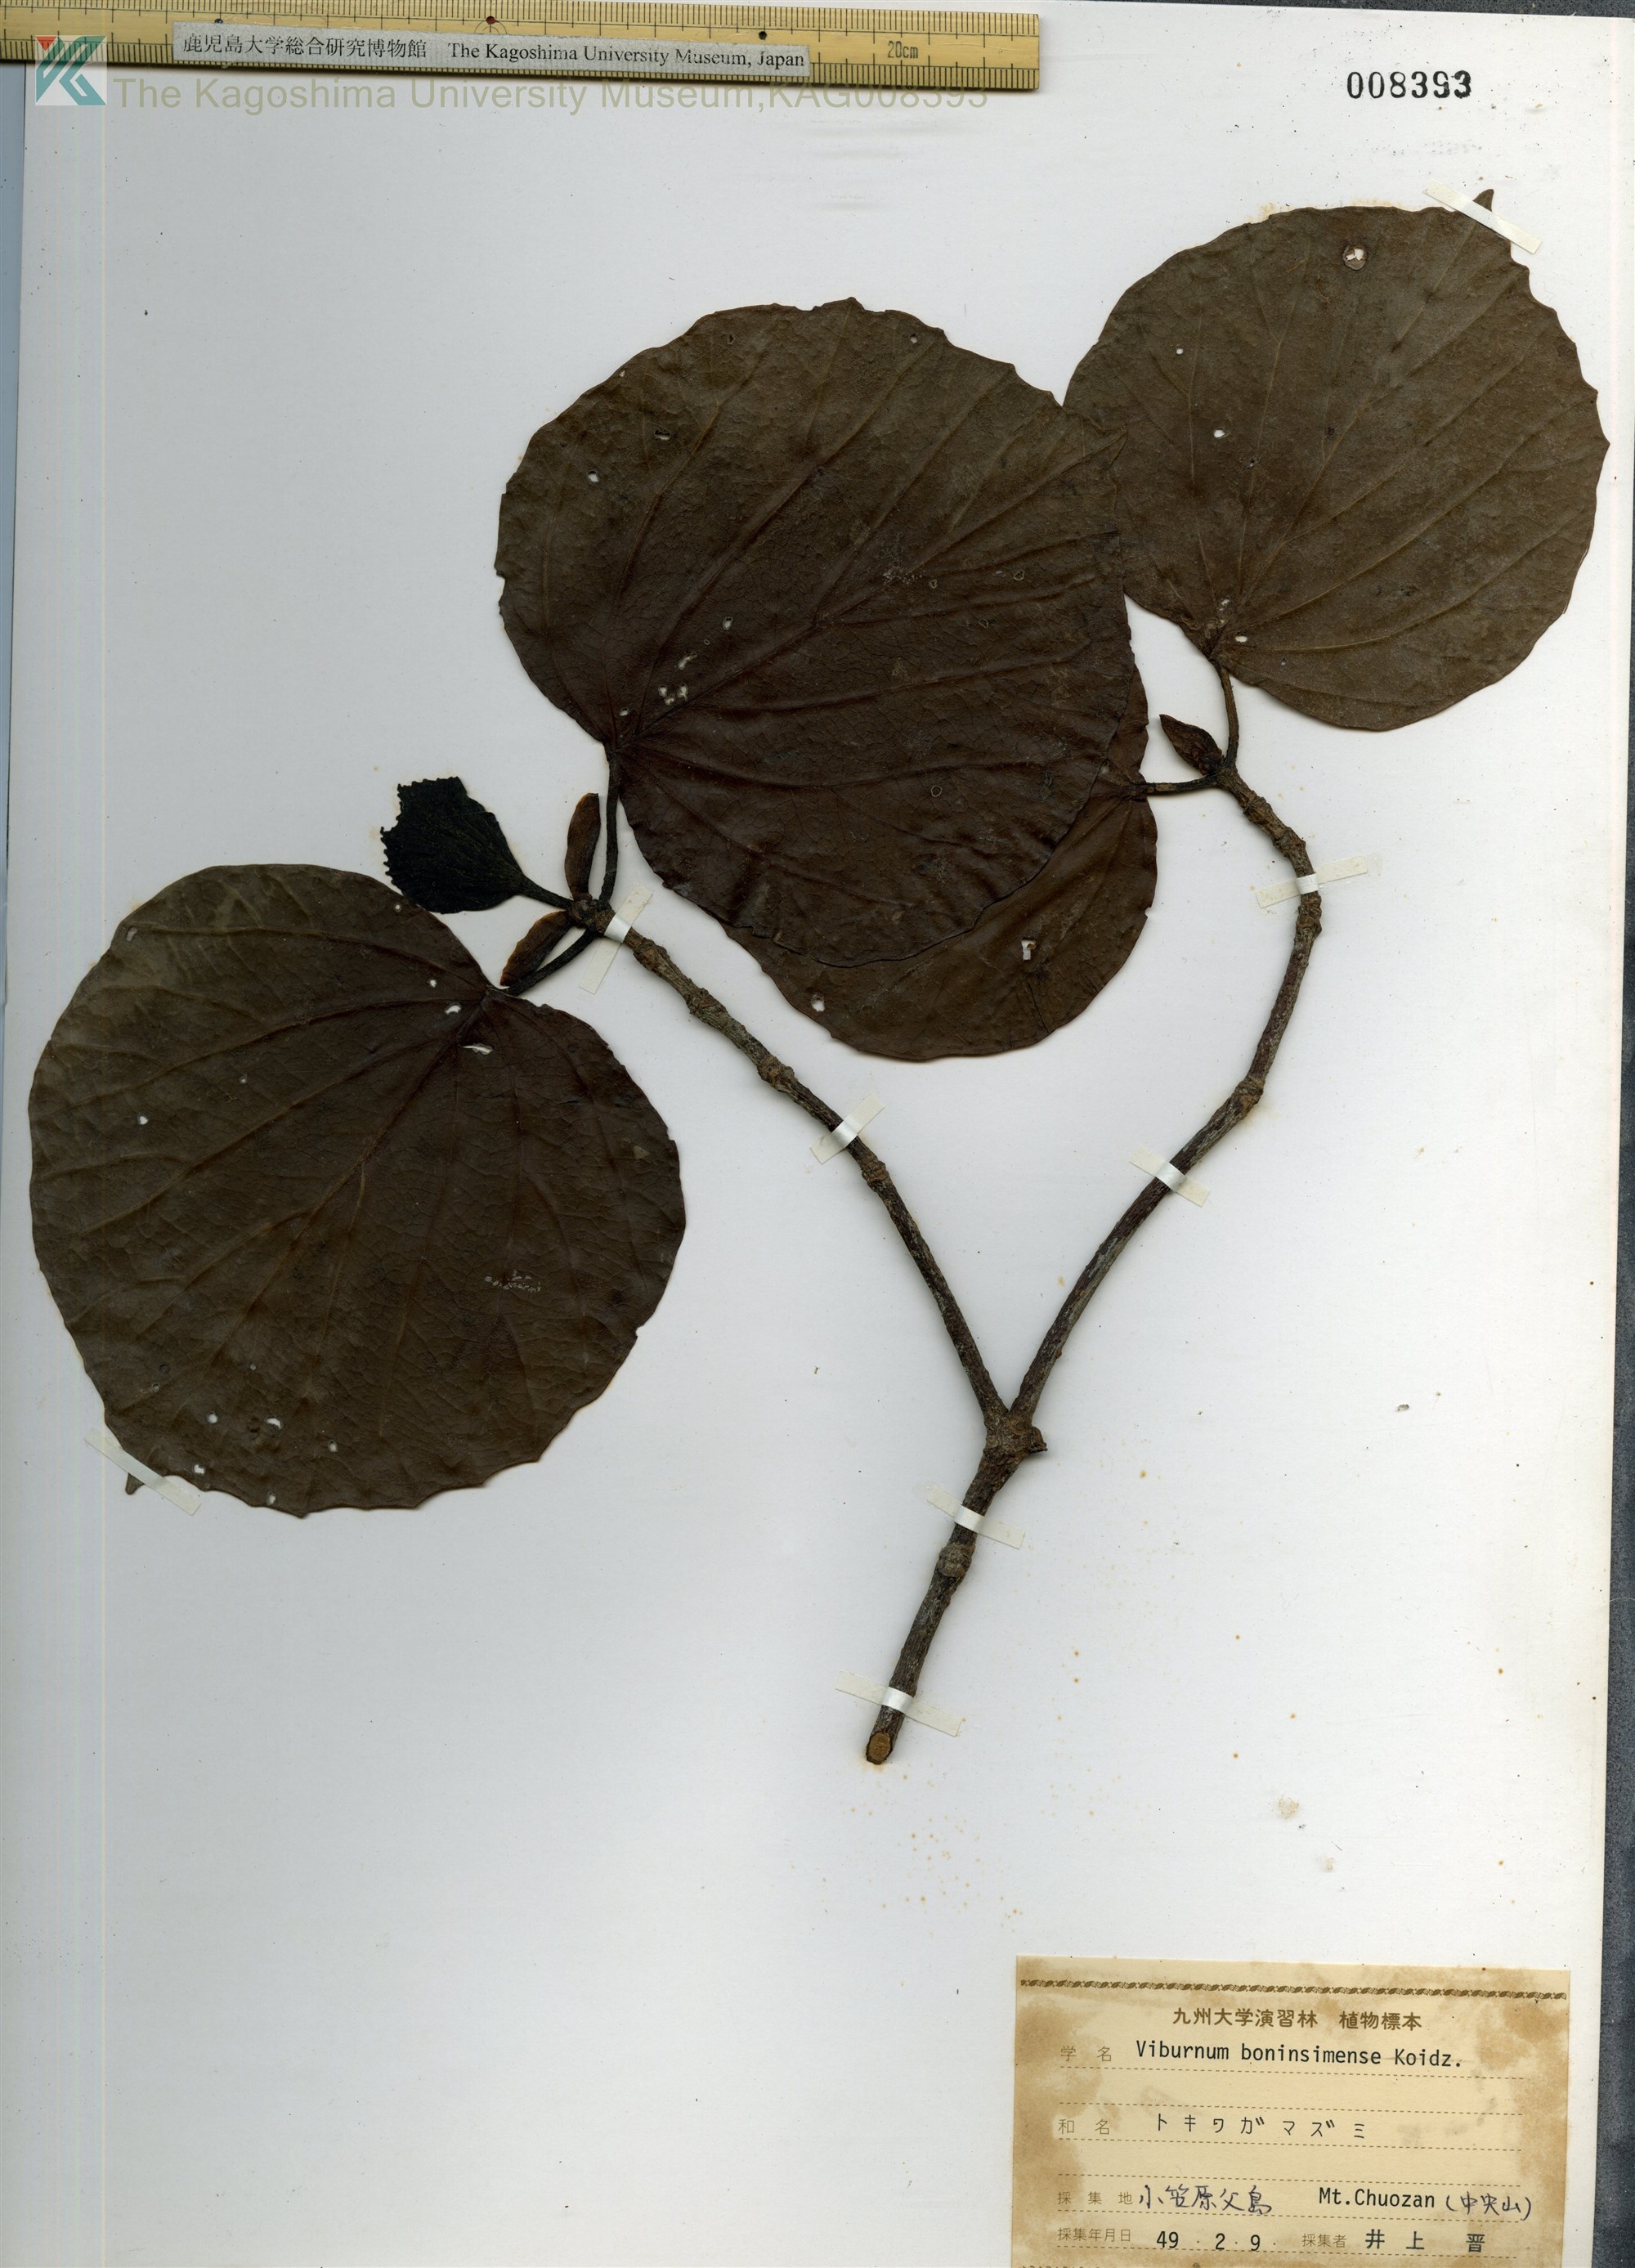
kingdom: Plantae
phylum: Tracheophyta
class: Magnoliopsida
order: Dipsacales
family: Viburnaceae
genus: Viburnum
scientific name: Viburnum boninsimense
